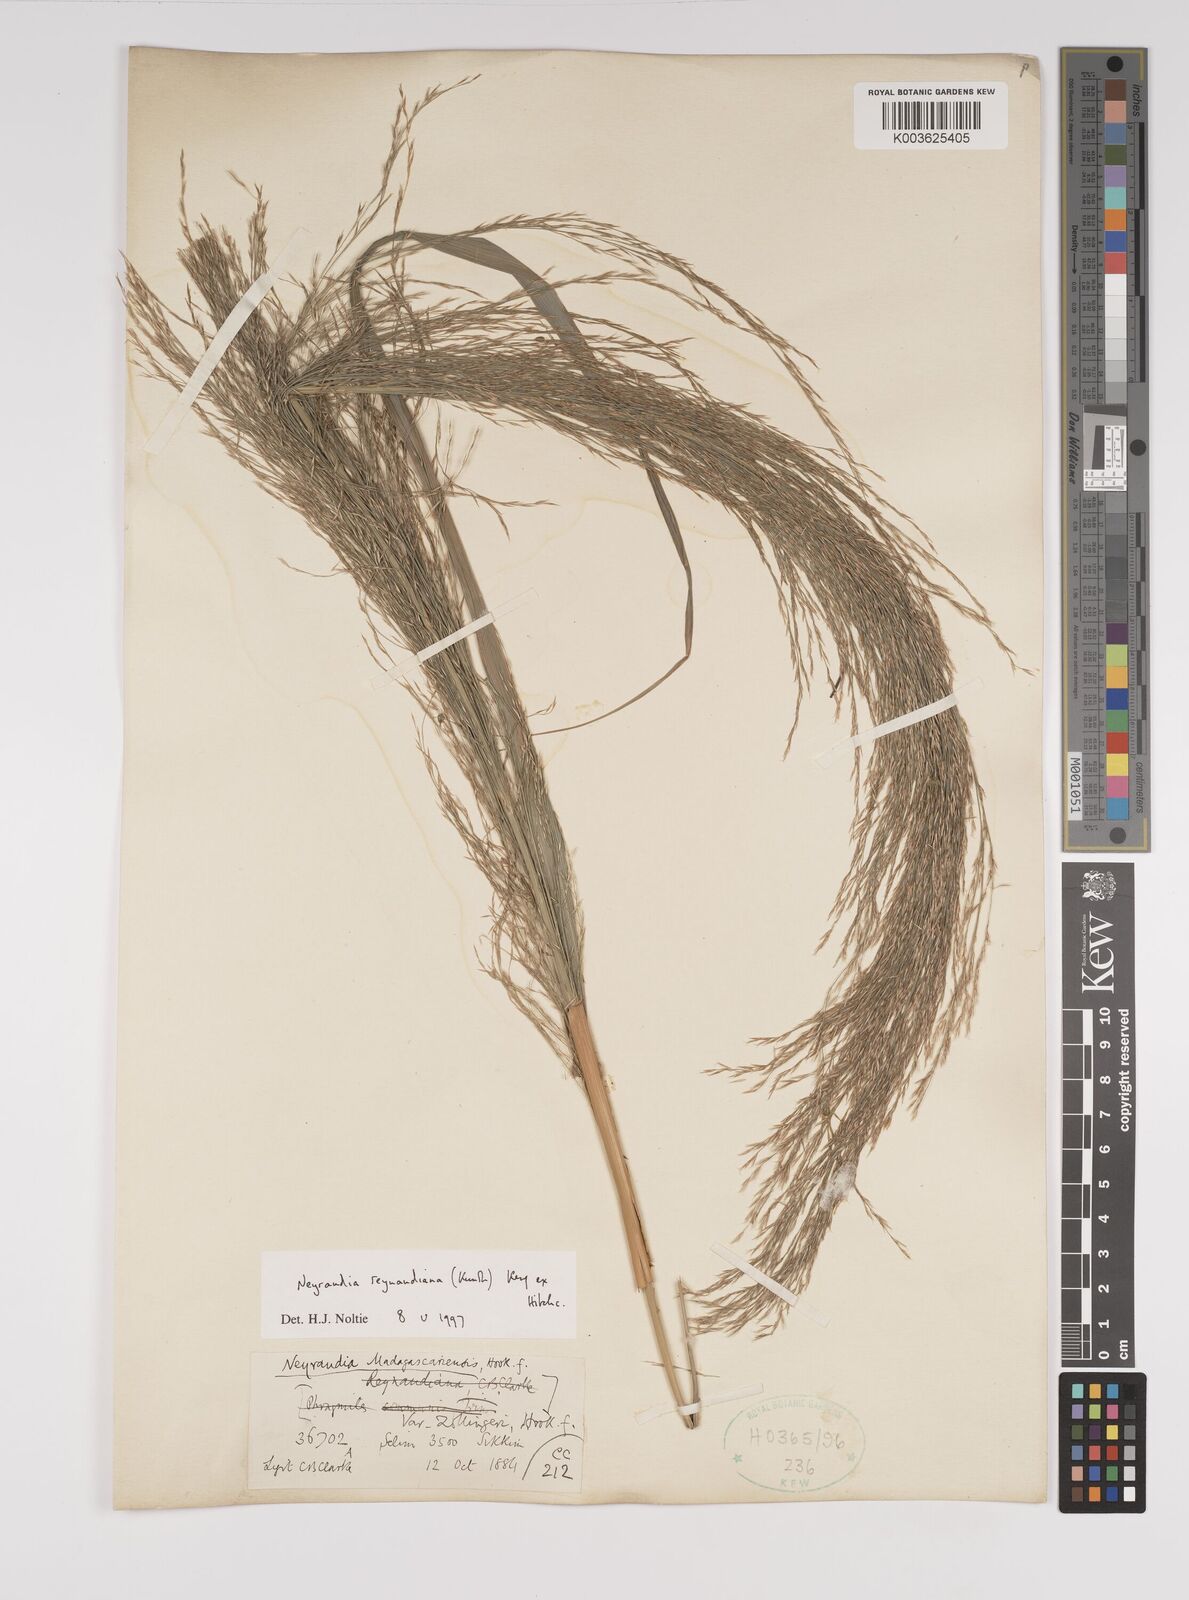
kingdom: Plantae
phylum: Tracheophyta
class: Liliopsida
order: Poales
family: Poaceae
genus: Neyraudia
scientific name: Neyraudia reynaudiana
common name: Silkreed
